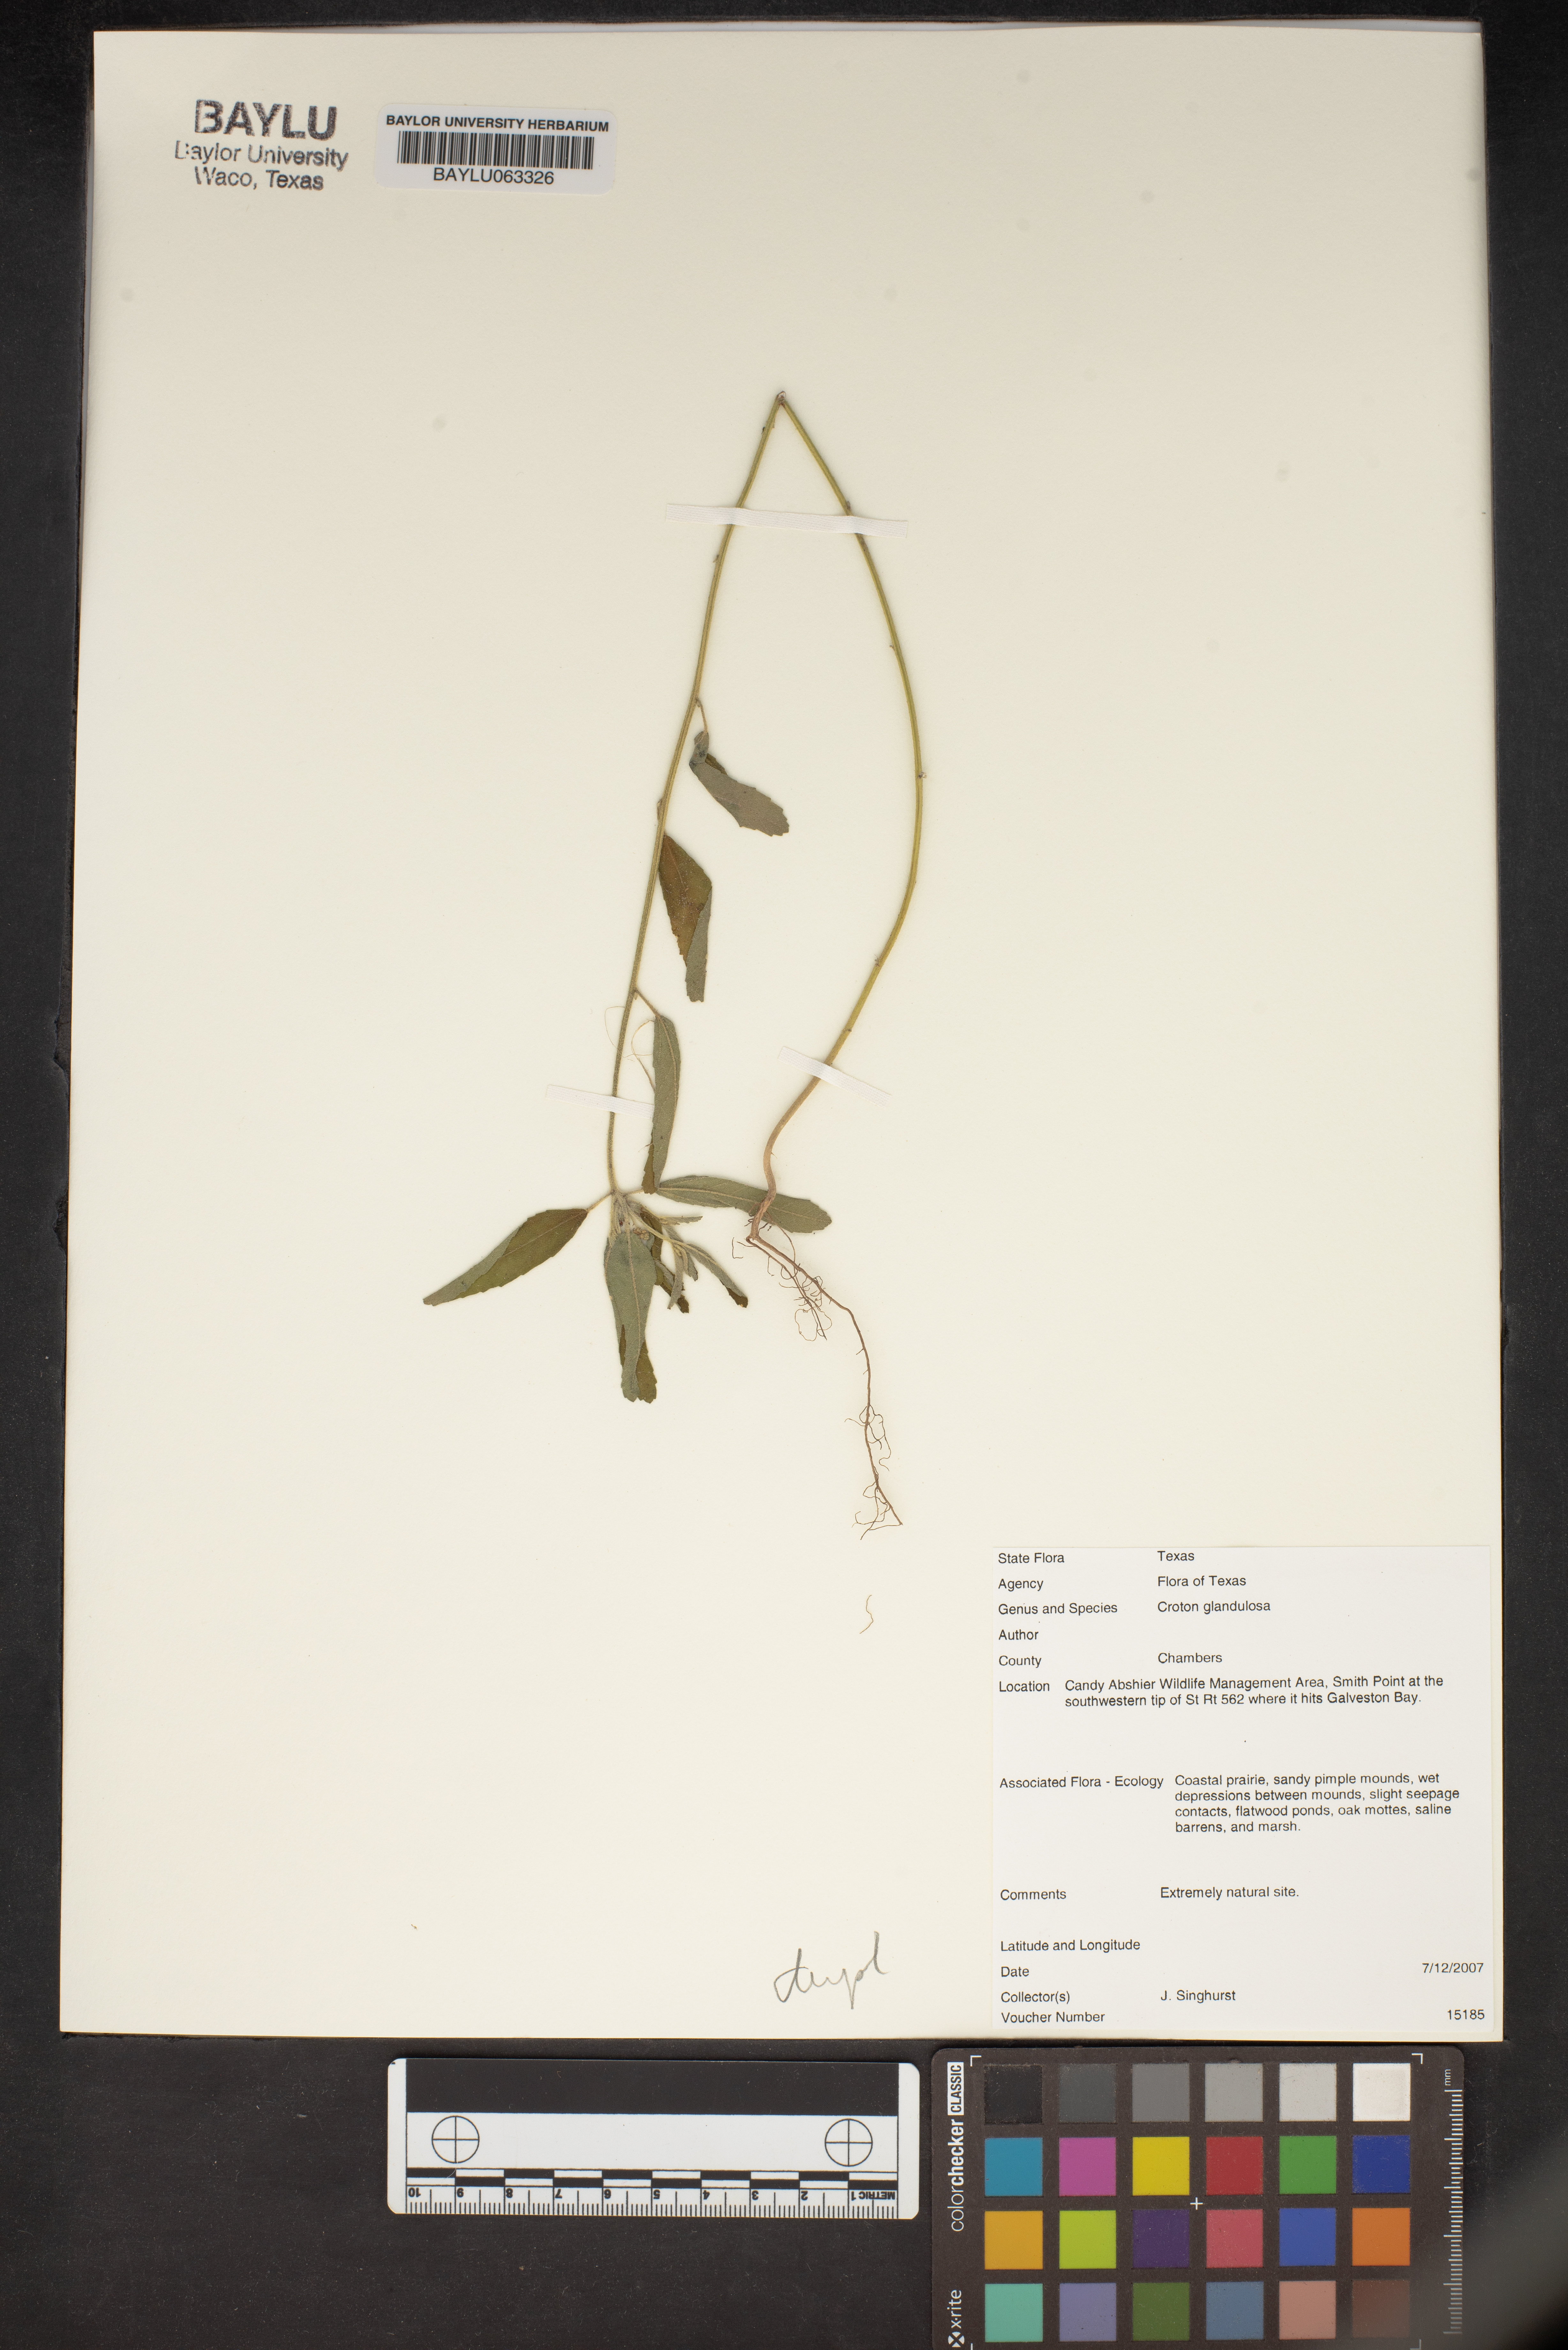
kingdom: Plantae
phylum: Tracheophyta
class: Magnoliopsida
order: Malpighiales
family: Euphorbiaceae
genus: Croton
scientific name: Croton glandulosus
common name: Tropic croton
